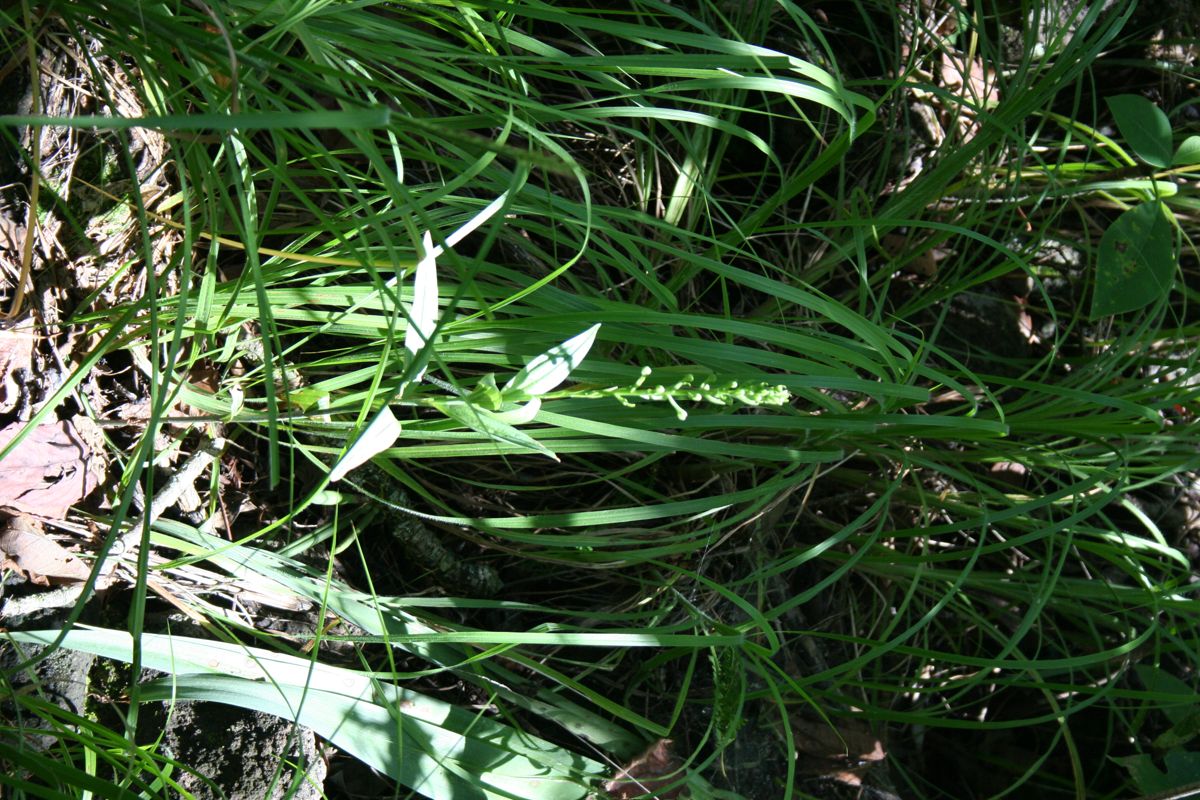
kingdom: Plantae
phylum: Tracheophyta
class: Liliopsida
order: Asparagales
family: Orchidaceae
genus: Habenaria
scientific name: Habenaria
